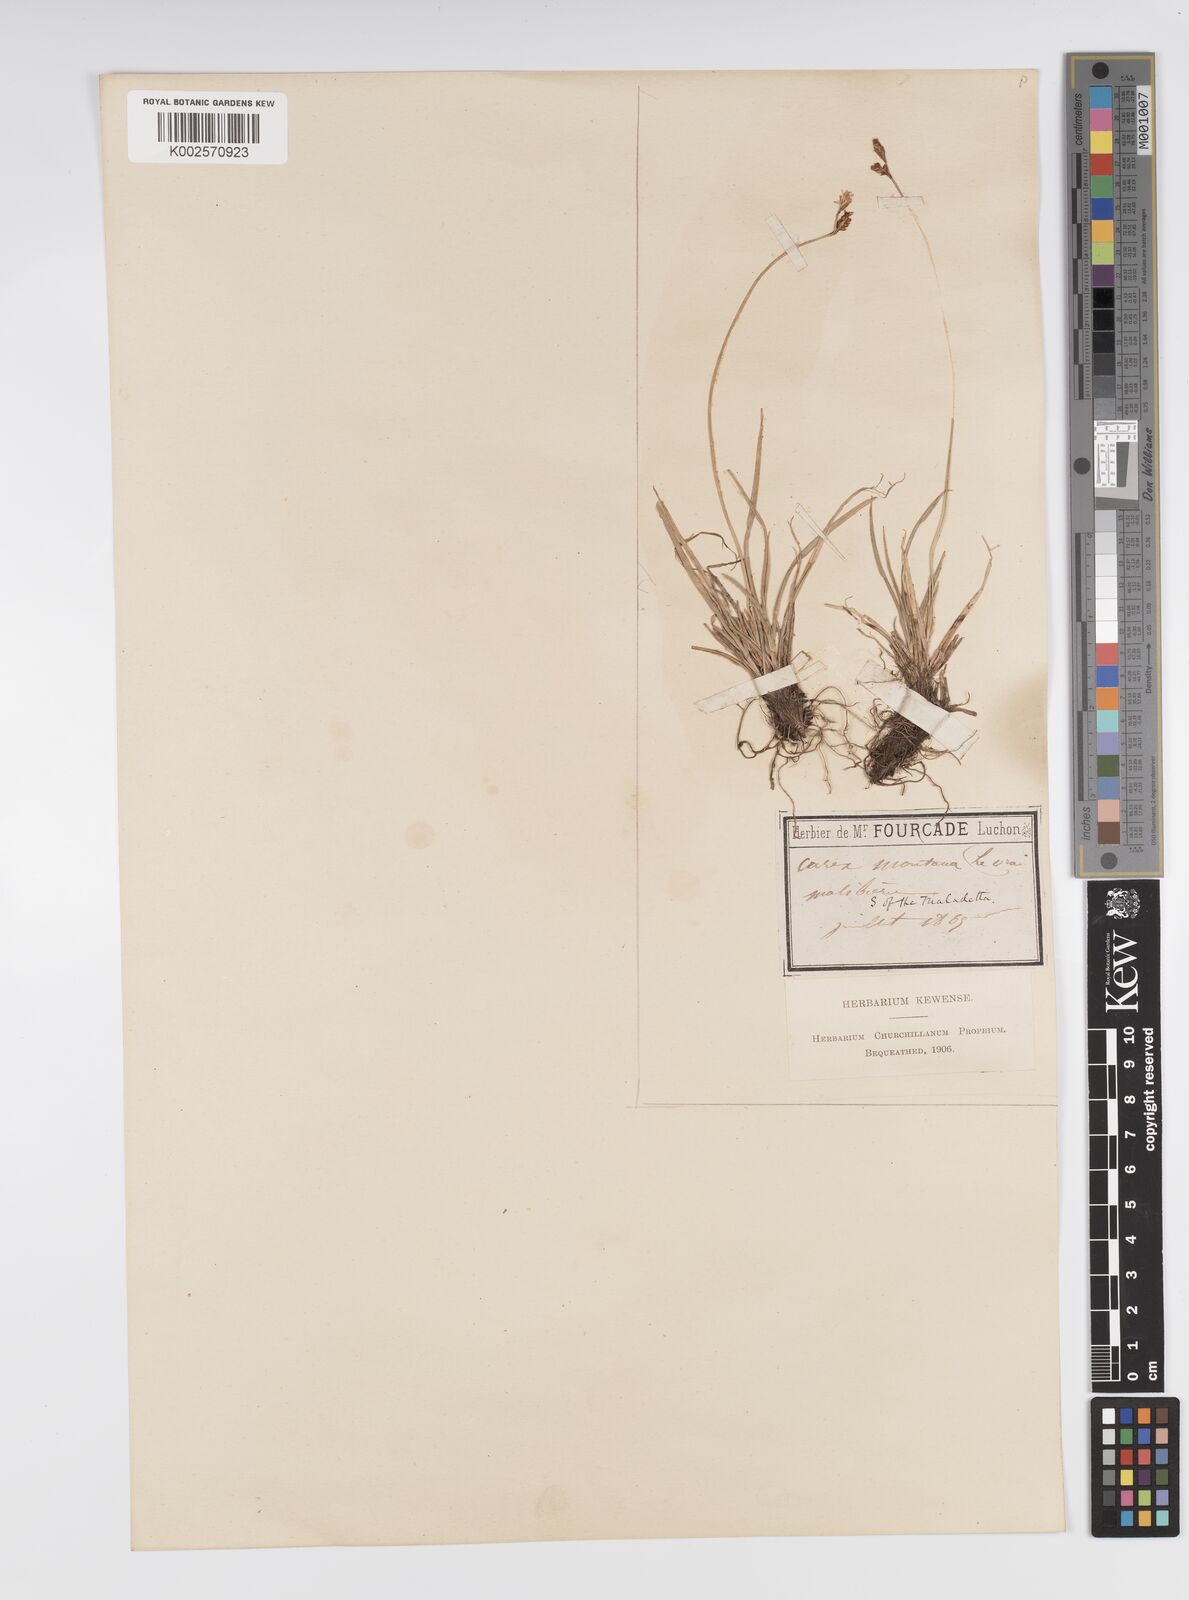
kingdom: Plantae
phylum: Tracheophyta
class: Liliopsida
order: Poales
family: Cyperaceae
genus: Carex
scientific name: Carex montana
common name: Soft-leaved sedge
